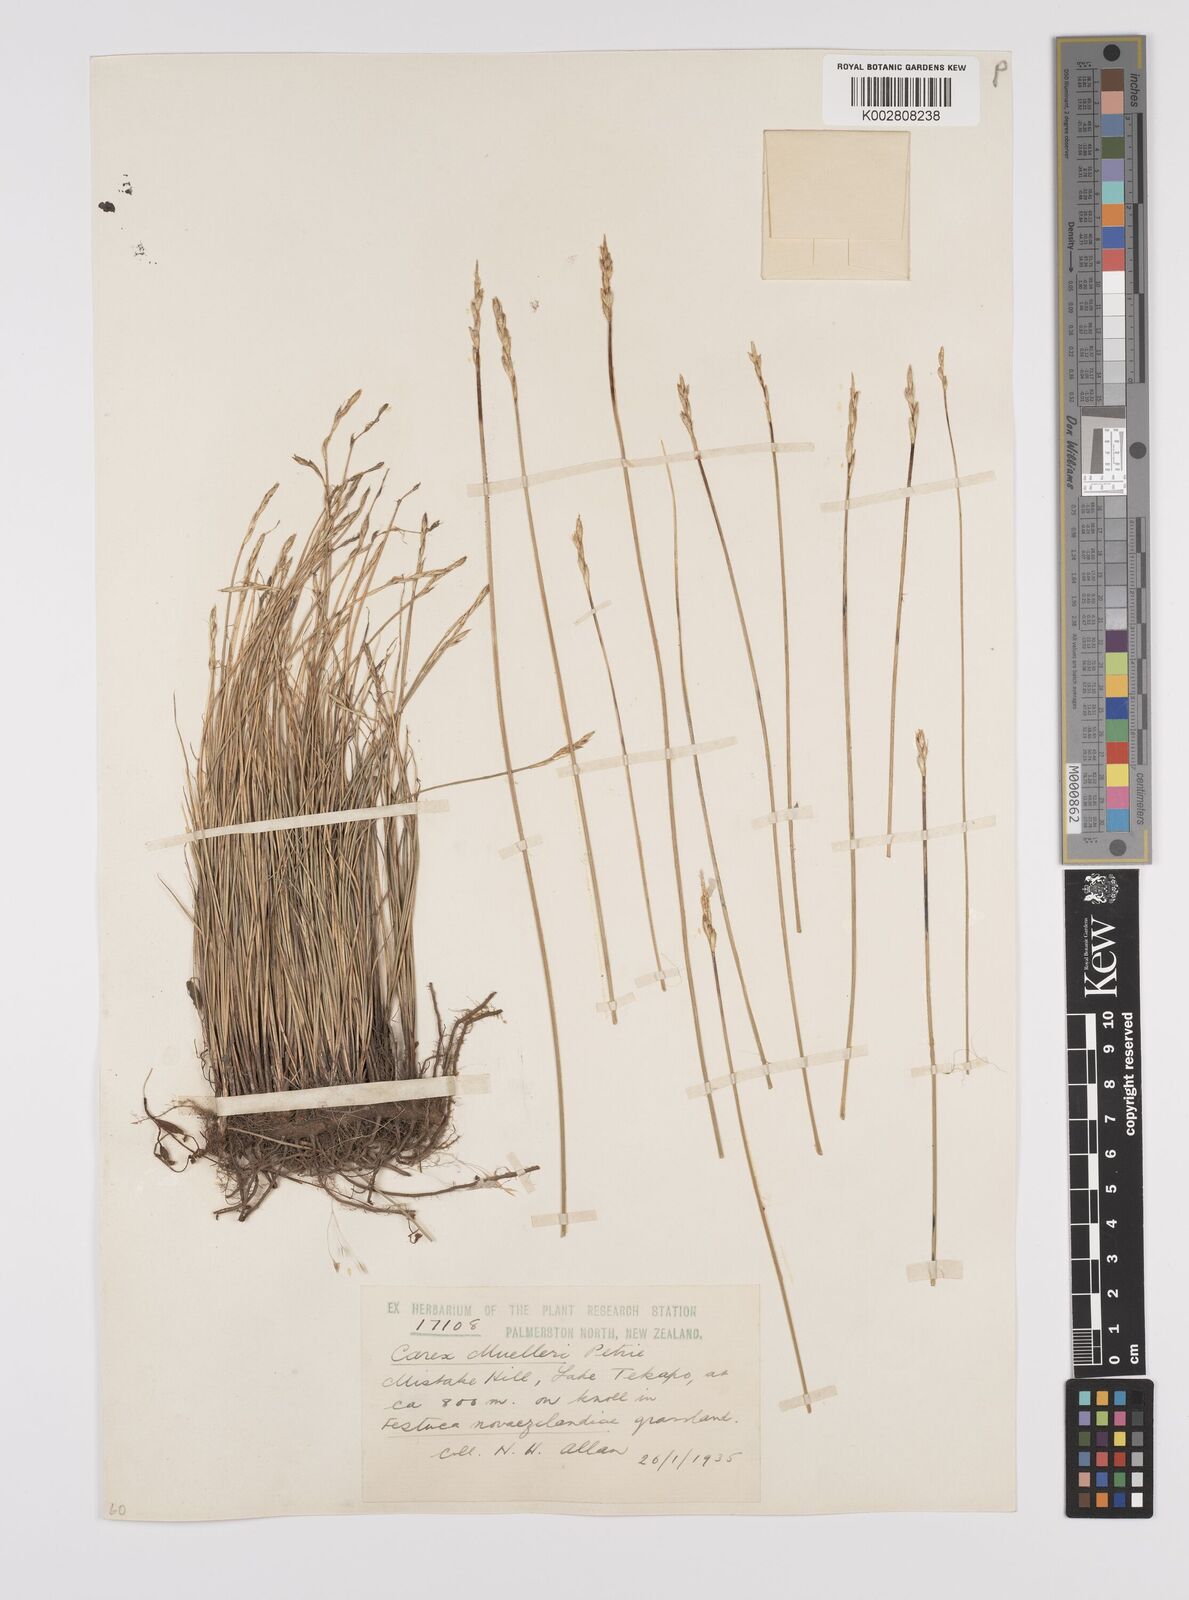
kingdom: Plantae
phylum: Tracheophyta
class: Liliopsida
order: Poales
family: Cyperaceae
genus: Carex
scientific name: Carex muelleri
